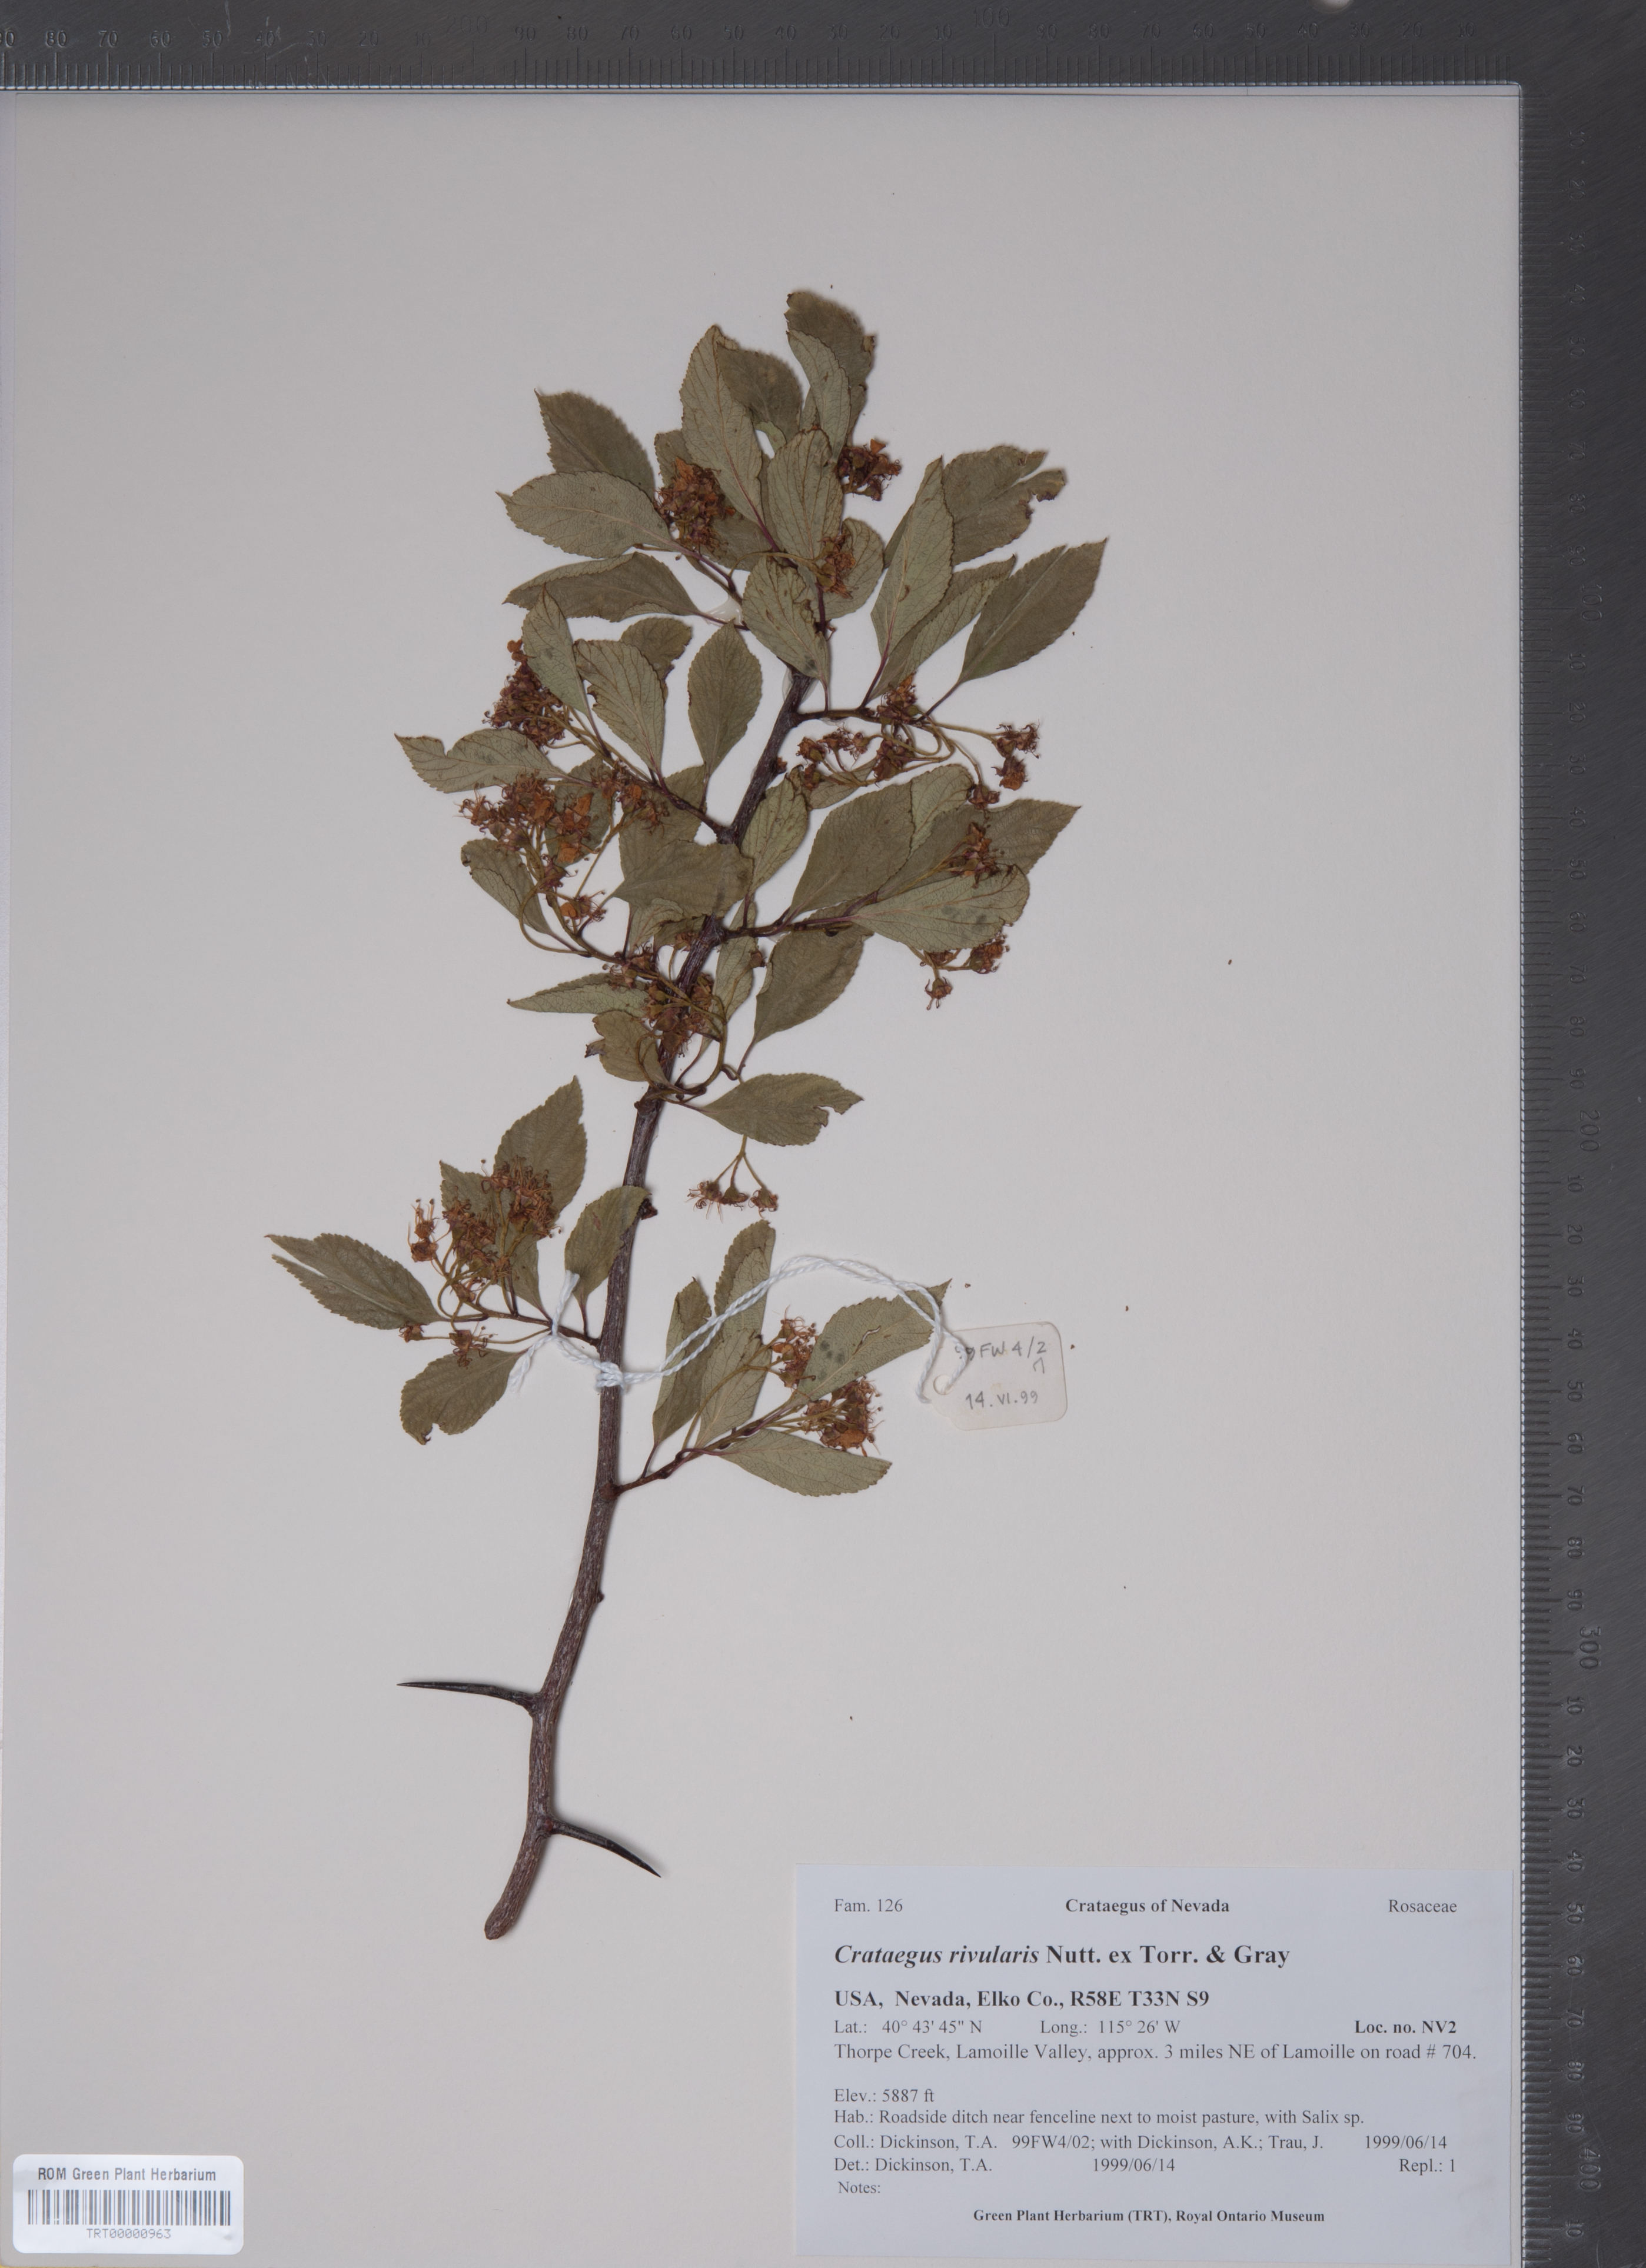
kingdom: Plantae
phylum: Tracheophyta
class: Magnoliopsida
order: Rosales
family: Rosaceae
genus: Crataegus
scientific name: Crataegus rivularis
